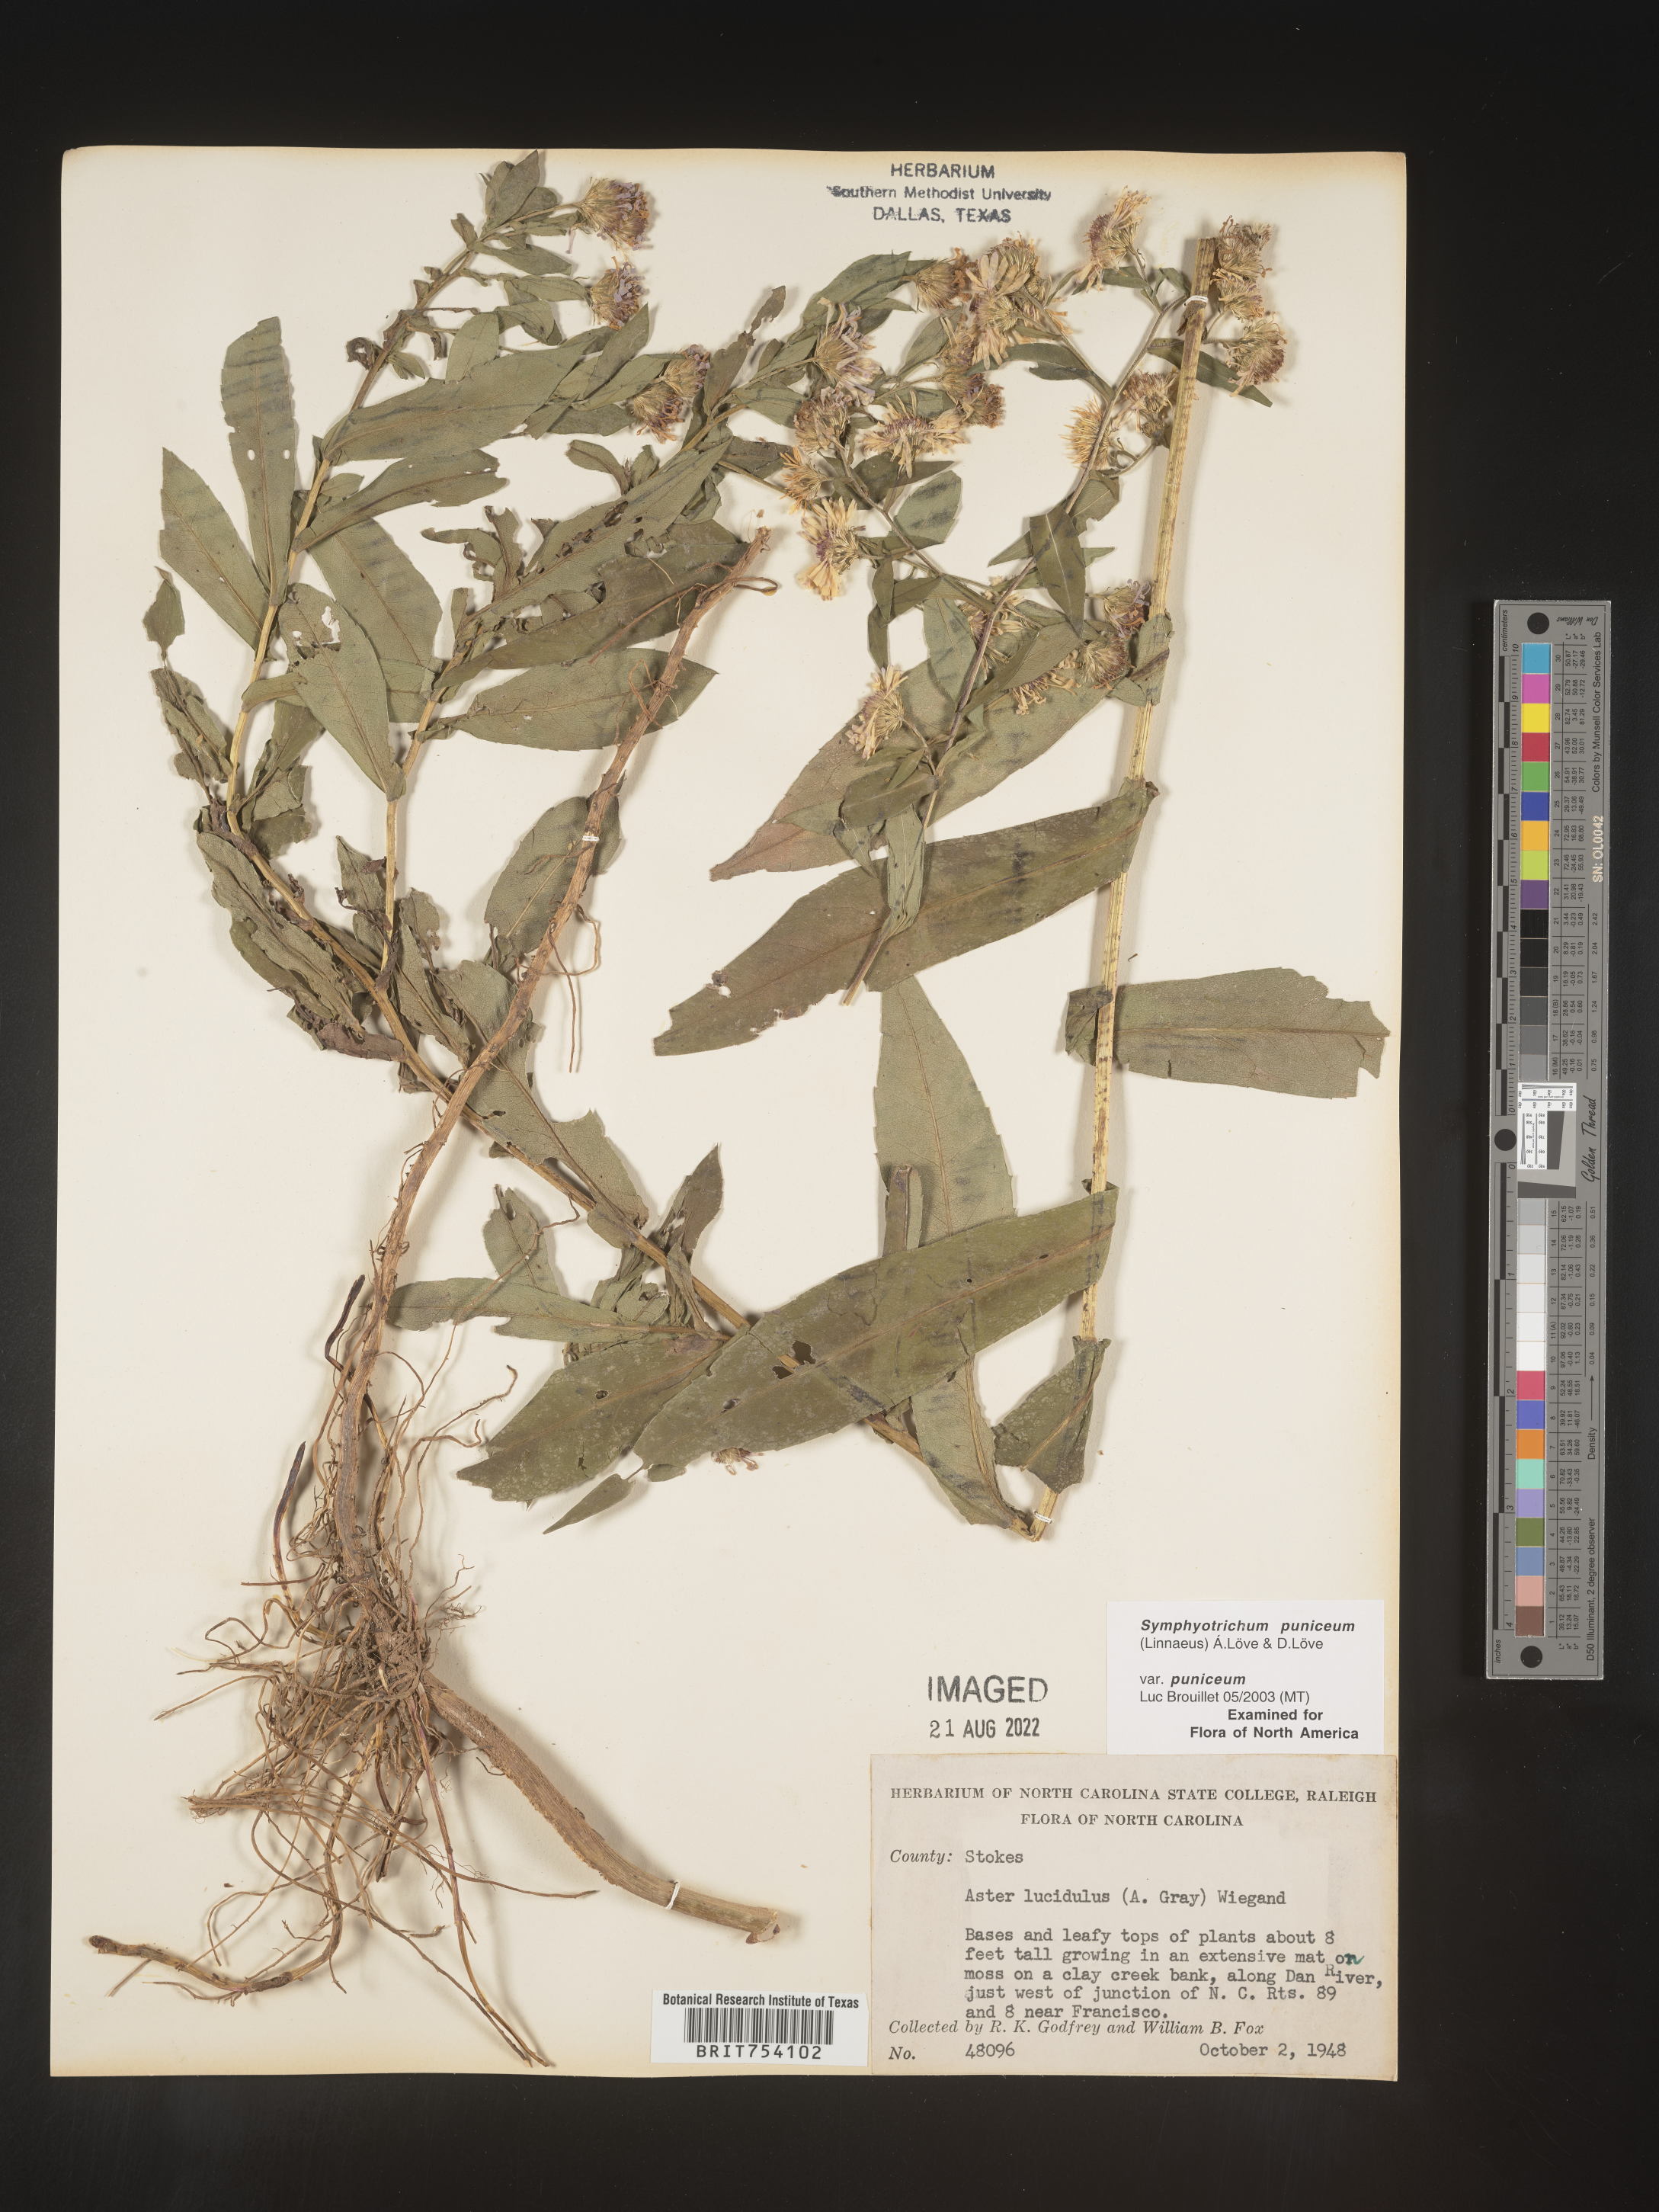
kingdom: Plantae
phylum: Tracheophyta
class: Magnoliopsida
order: Asterales
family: Asteraceae
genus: Symphyotrichum
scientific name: Symphyotrichum puniceum
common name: Bog aster
